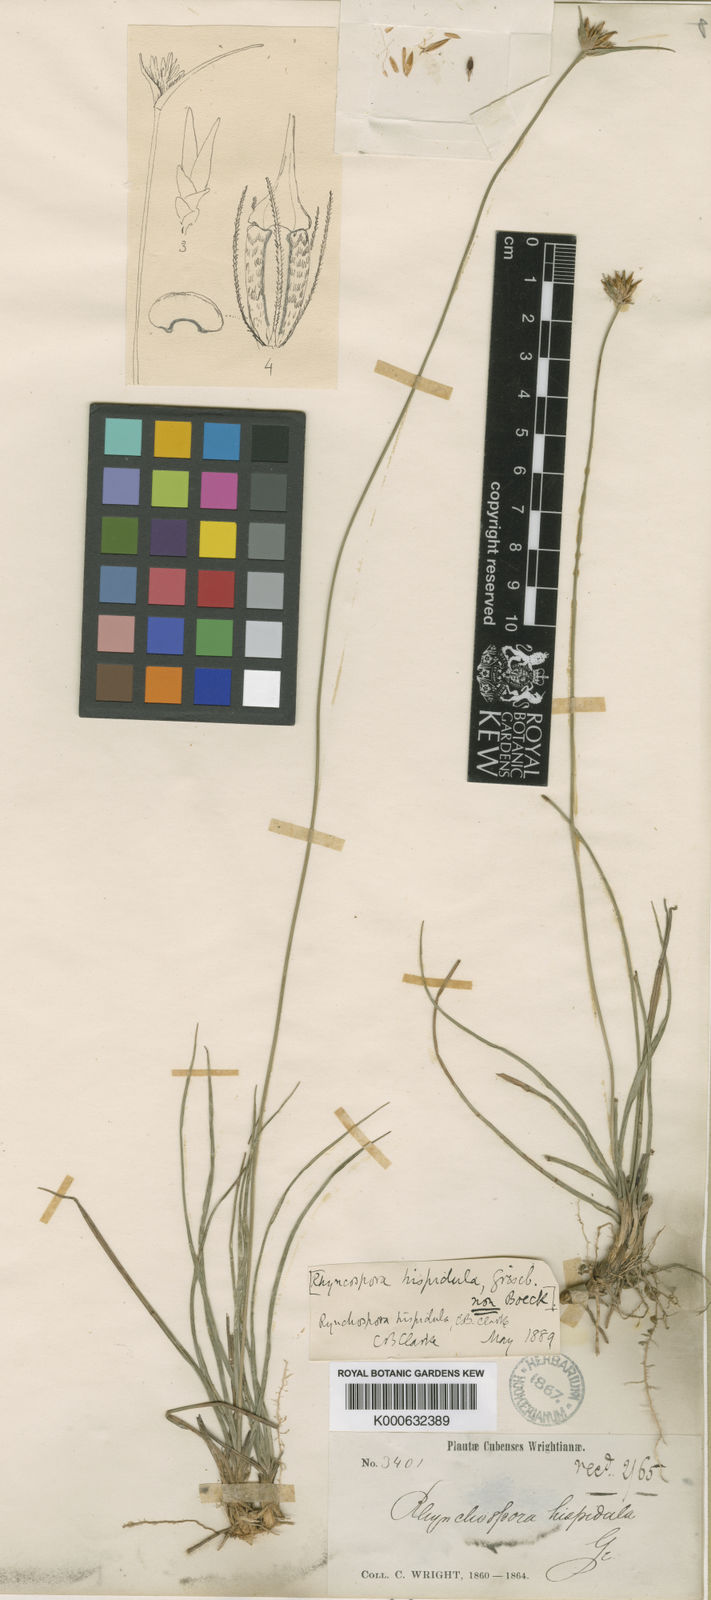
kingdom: Plantae
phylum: Tracheophyta
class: Liliopsida
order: Poales
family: Cyperaceae
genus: Rhynchospora
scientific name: Rhynchospora hispidula
